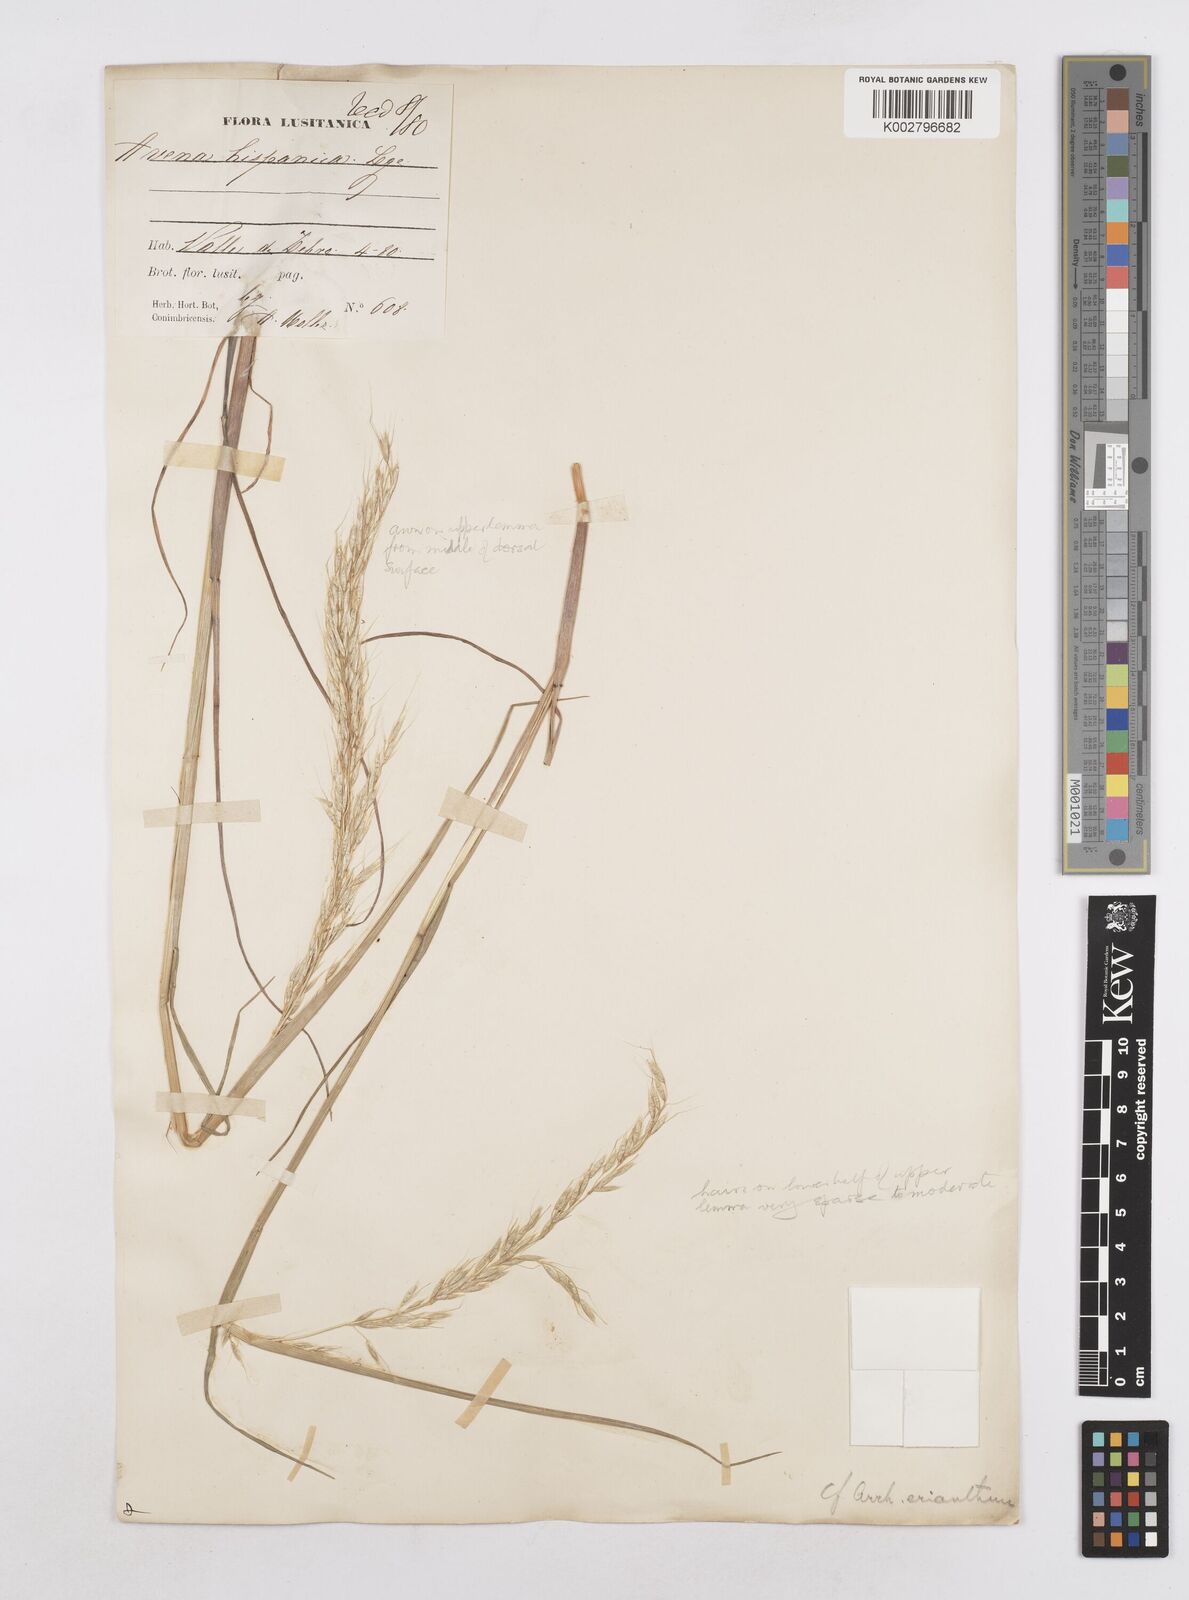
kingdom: Plantae
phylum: Tracheophyta
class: Liliopsida
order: Poales
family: Poaceae
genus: Arrhenatherum
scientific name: Arrhenatherum album
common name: Tall oat grass
